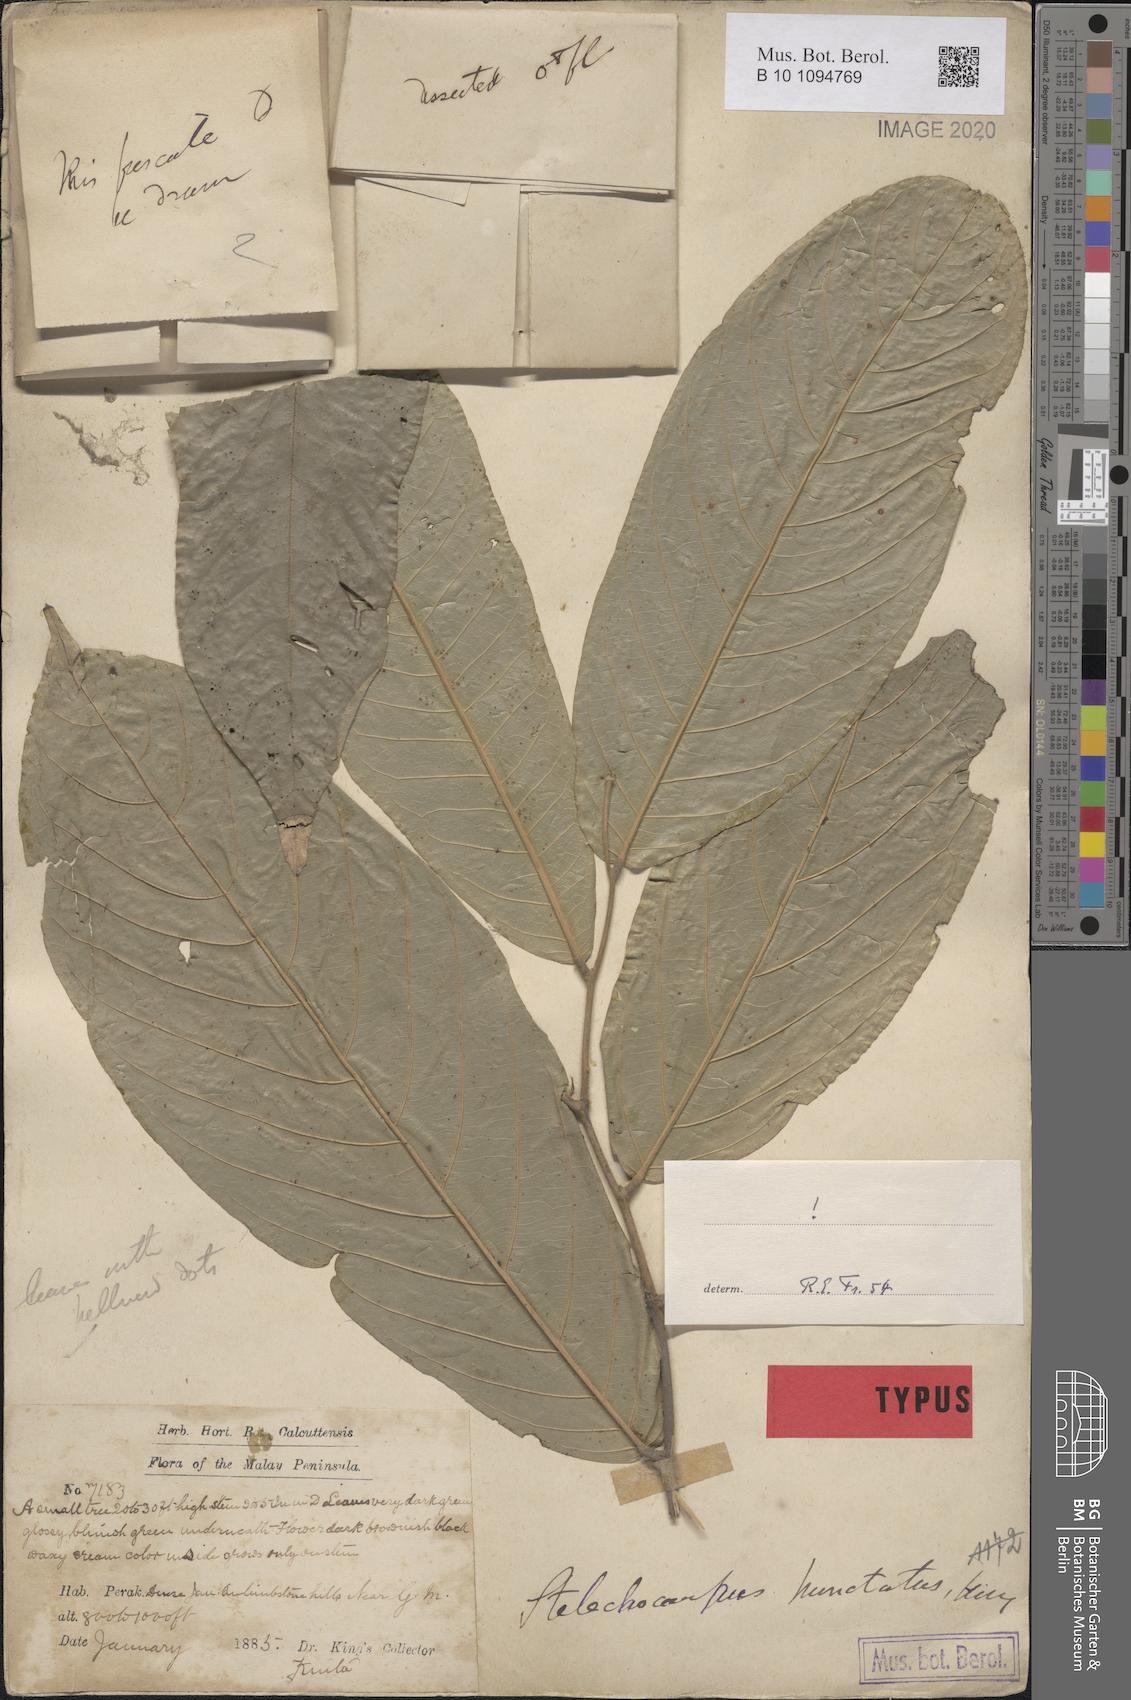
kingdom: Plantae
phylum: Tracheophyta
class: Magnoliopsida
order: Magnoliales
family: Annonaceae
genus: Stelechocarpus
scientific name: Stelechocarpus cauliflorus
